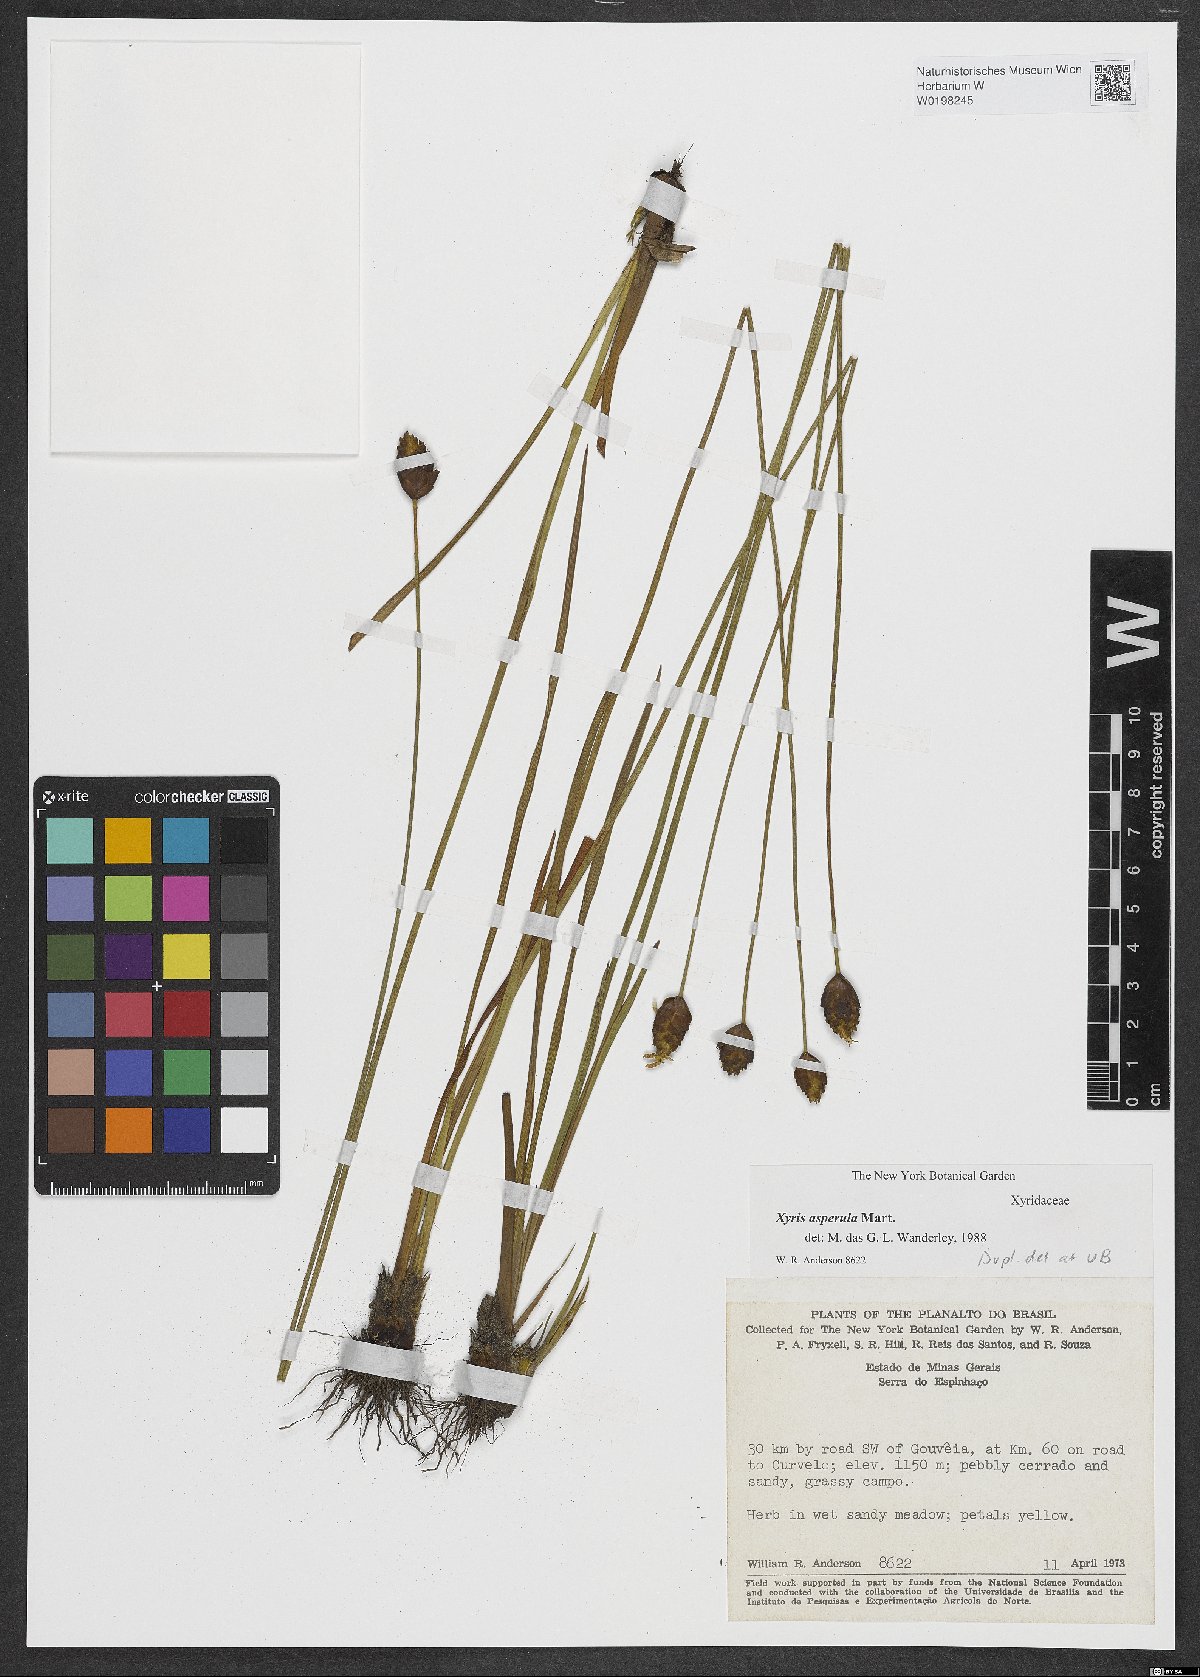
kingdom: Plantae
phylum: Tracheophyta
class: Liliopsida
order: Poales
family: Xyridaceae
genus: Xyris
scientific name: Xyris asperula
